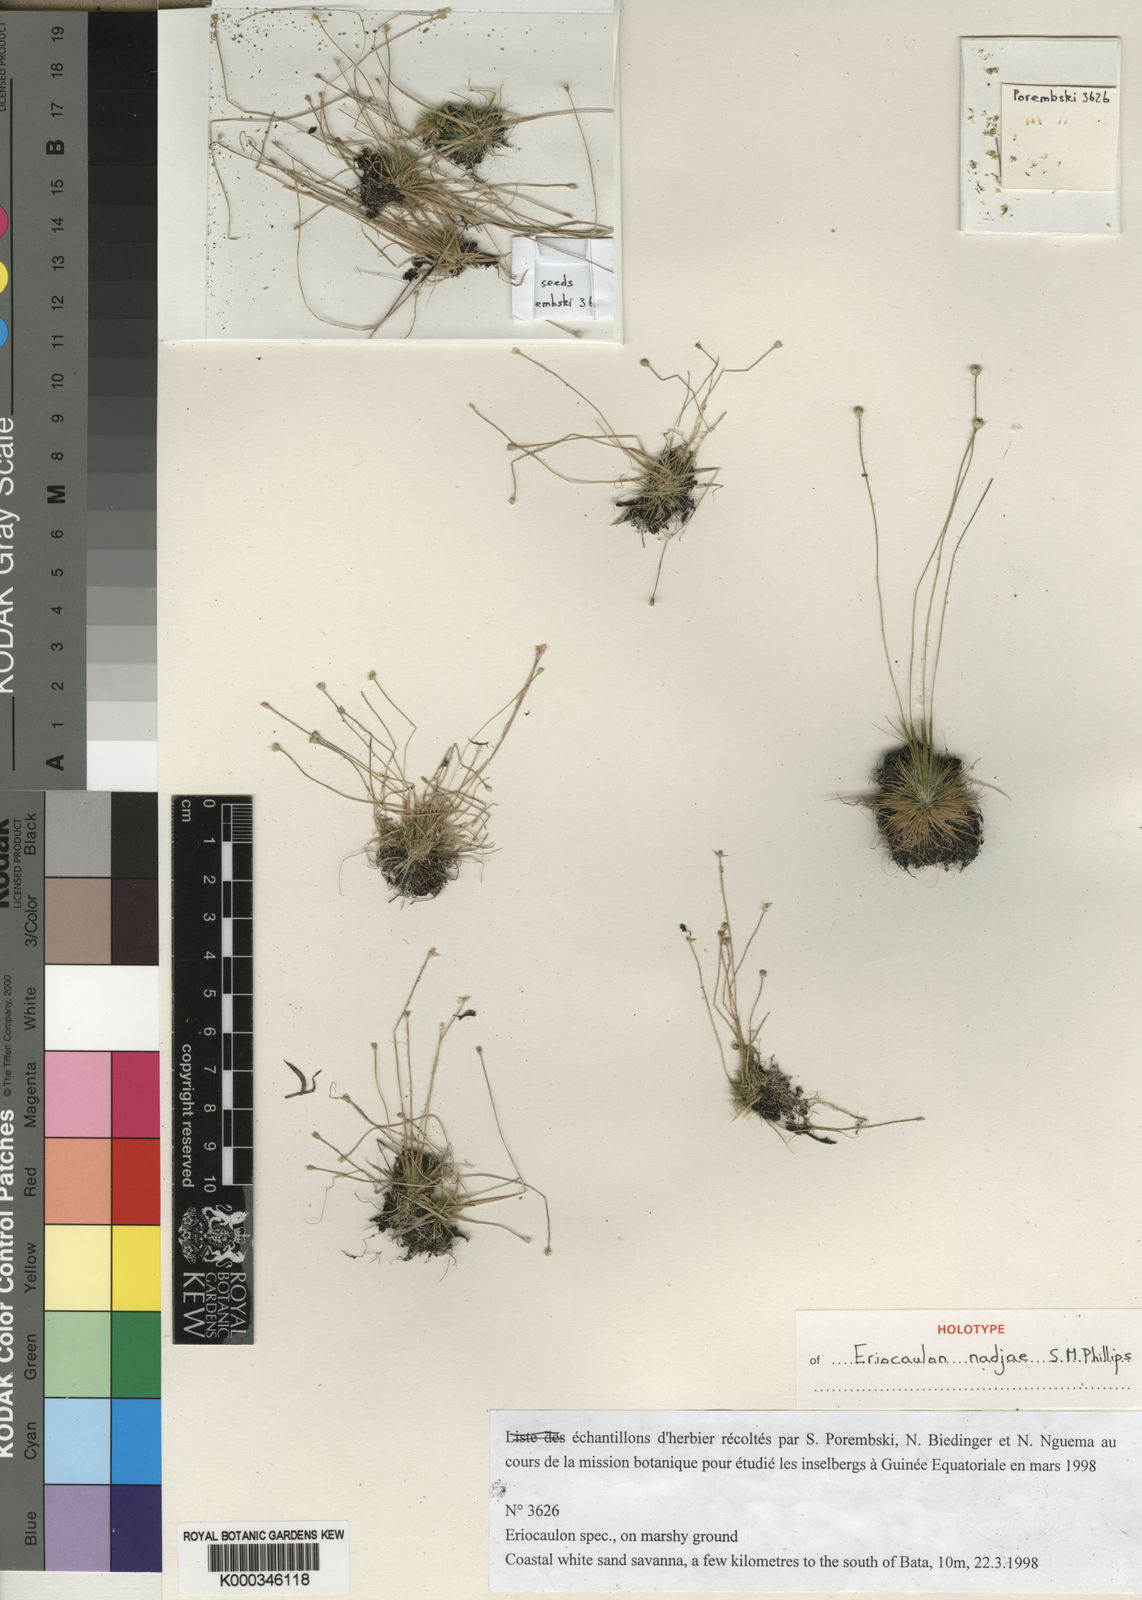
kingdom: Plantae
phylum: Tracheophyta
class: Liliopsida
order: Poales
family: Eriocaulaceae
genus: Eriocaulon
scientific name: Eriocaulon nadjae
